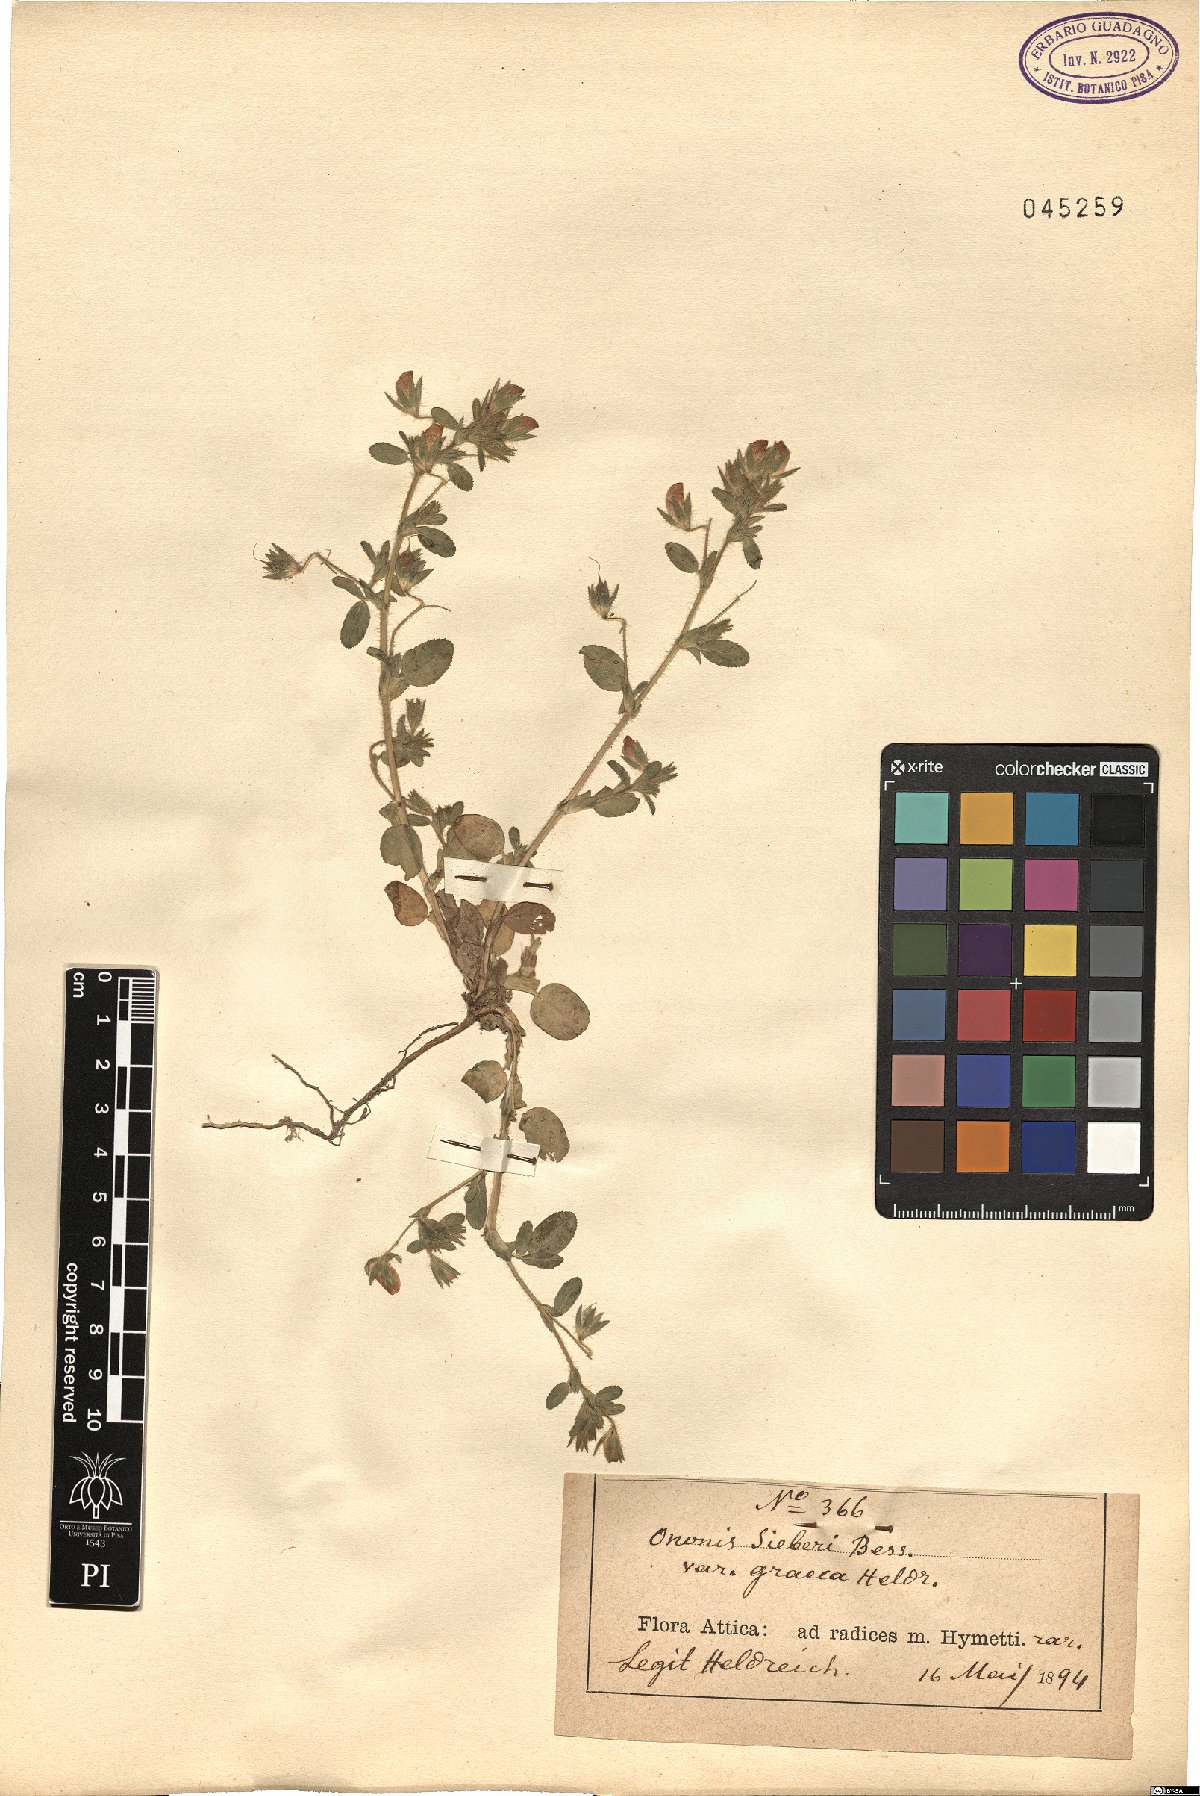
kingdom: Plantae
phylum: Tracheophyta
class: Magnoliopsida
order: Fabales
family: Fabaceae
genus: Ononis
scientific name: Ononis sieberi
